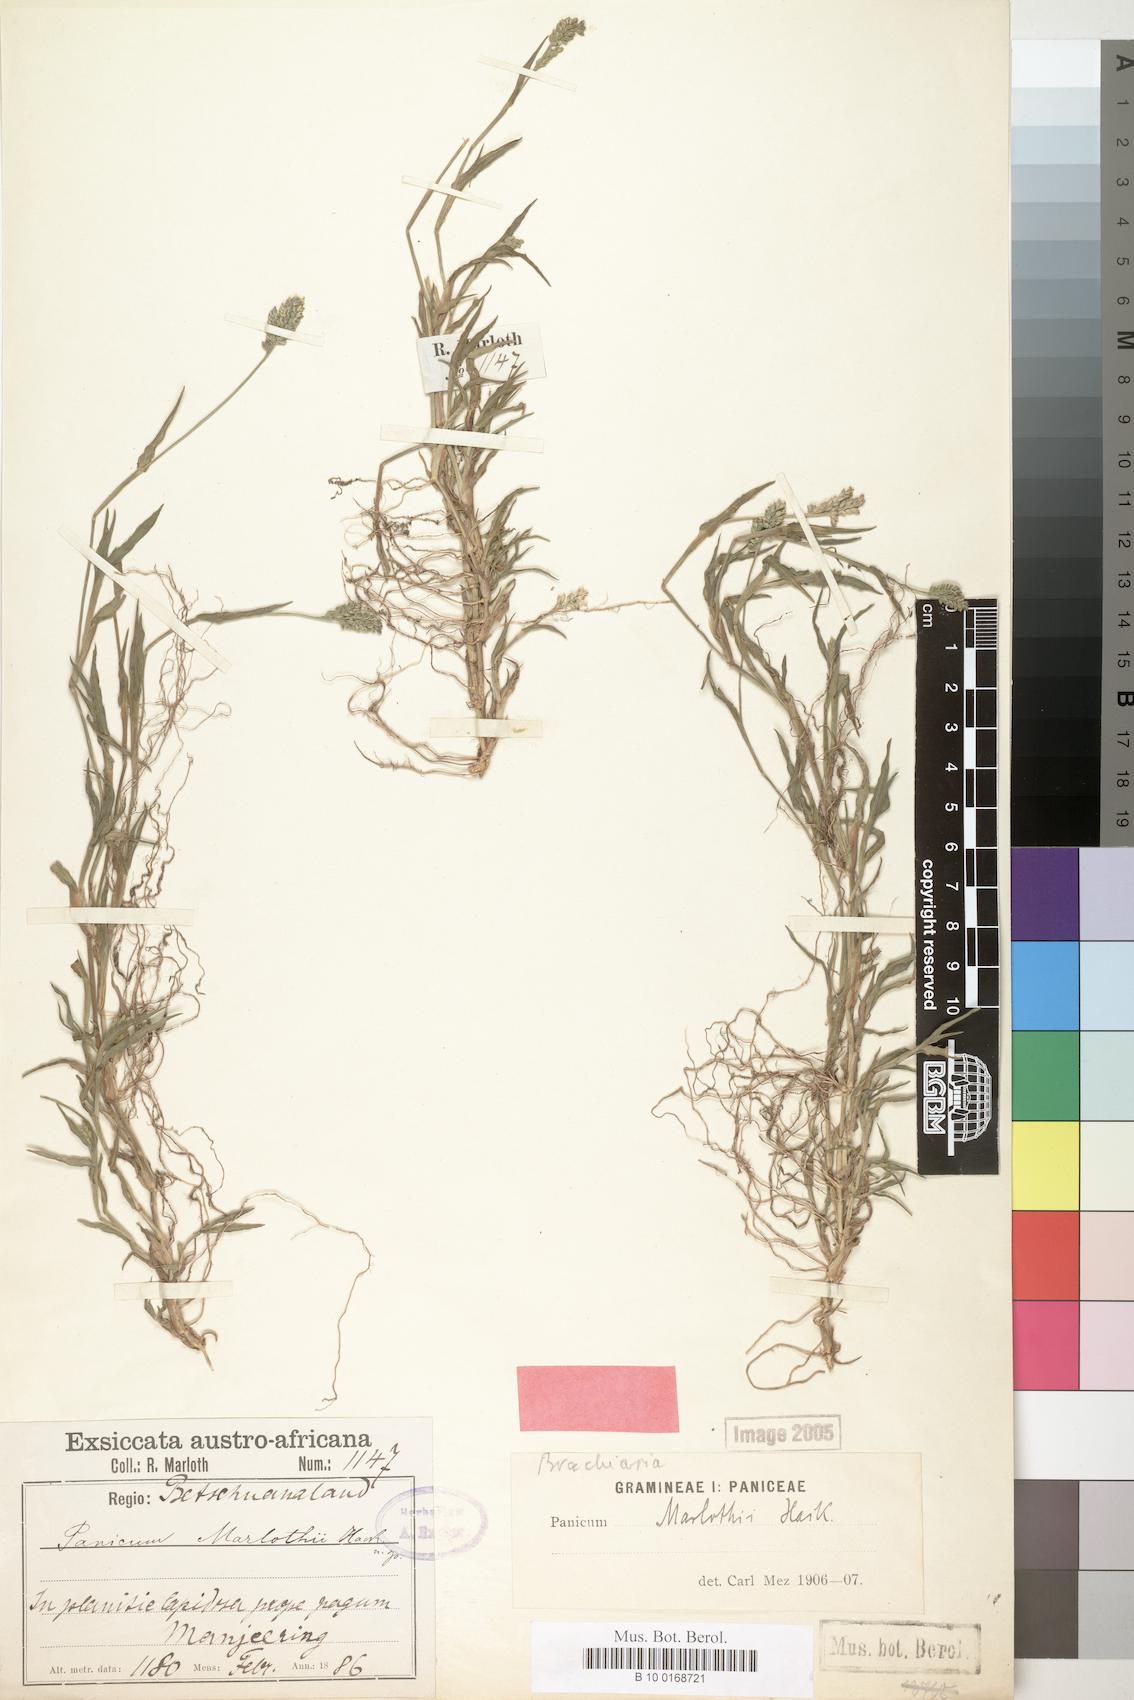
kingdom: Plantae
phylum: Tracheophyta
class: Liliopsida
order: Poales
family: Poaceae
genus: Urochloa
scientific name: Urochloa Brachiaria marlothii
